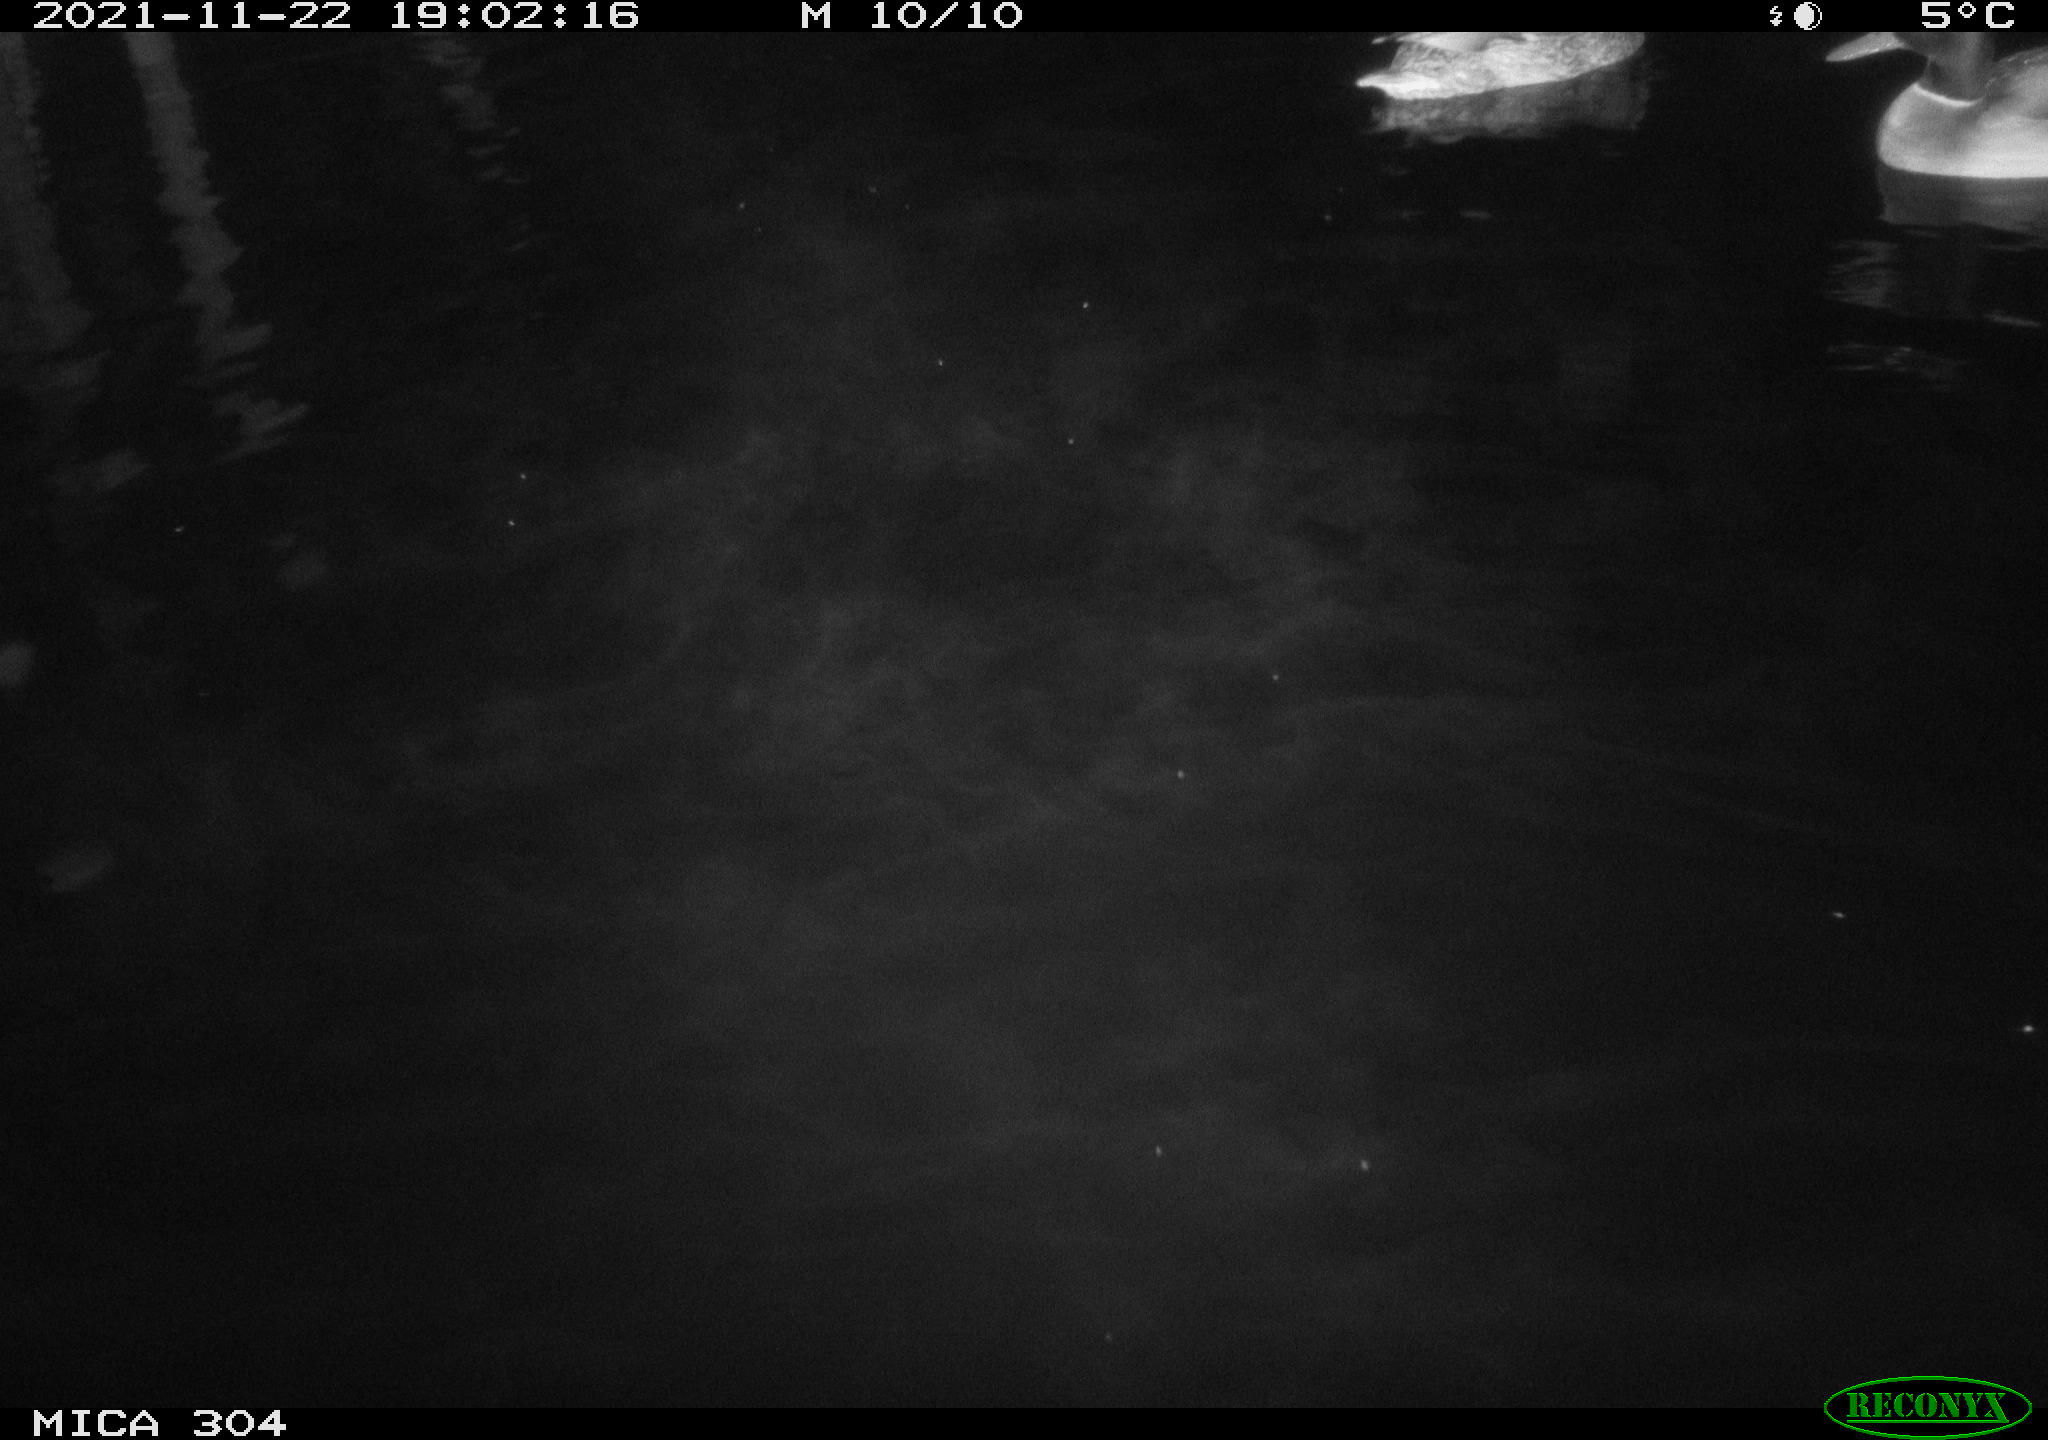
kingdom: Animalia
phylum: Chordata
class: Aves
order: Anseriformes
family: Anatidae
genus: Anas
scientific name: Anas platyrhynchos
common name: Mallard
